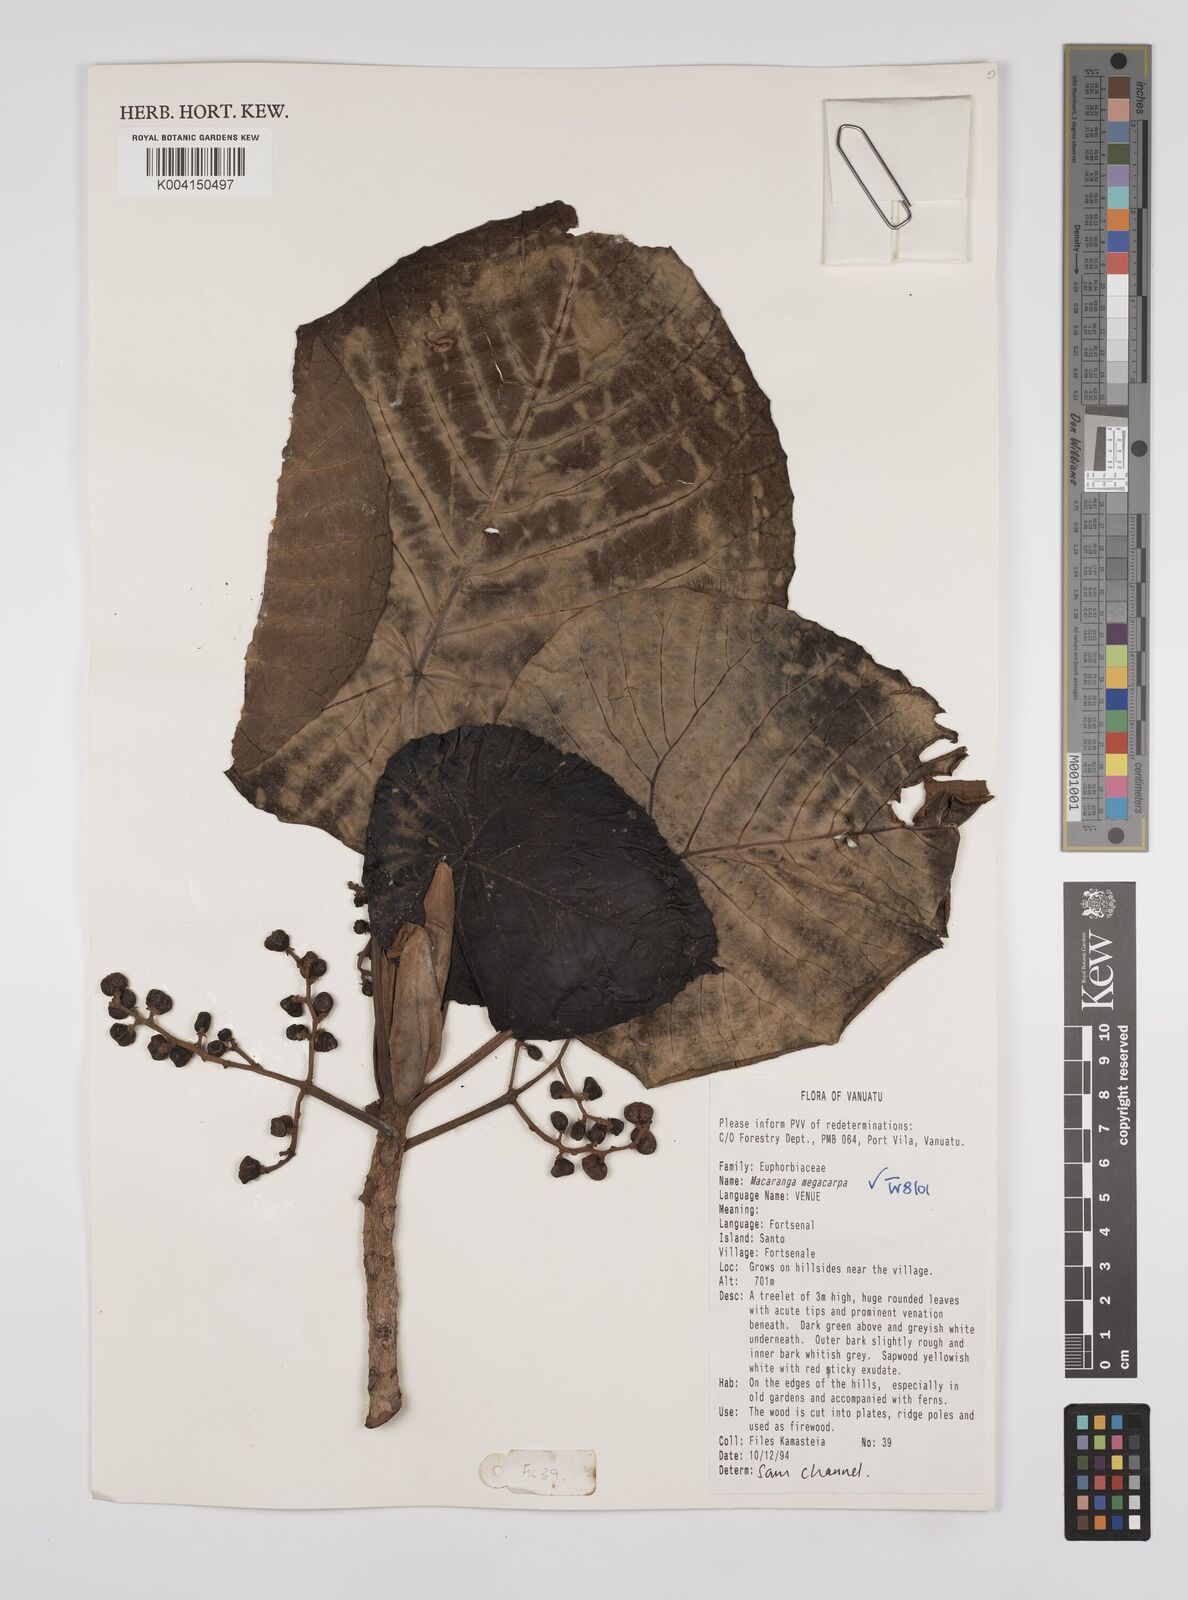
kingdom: Plantae
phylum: Tracheophyta
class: Magnoliopsida
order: Malpighiales
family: Euphorbiaceae
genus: Macaranga
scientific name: Macaranga megacarpa
